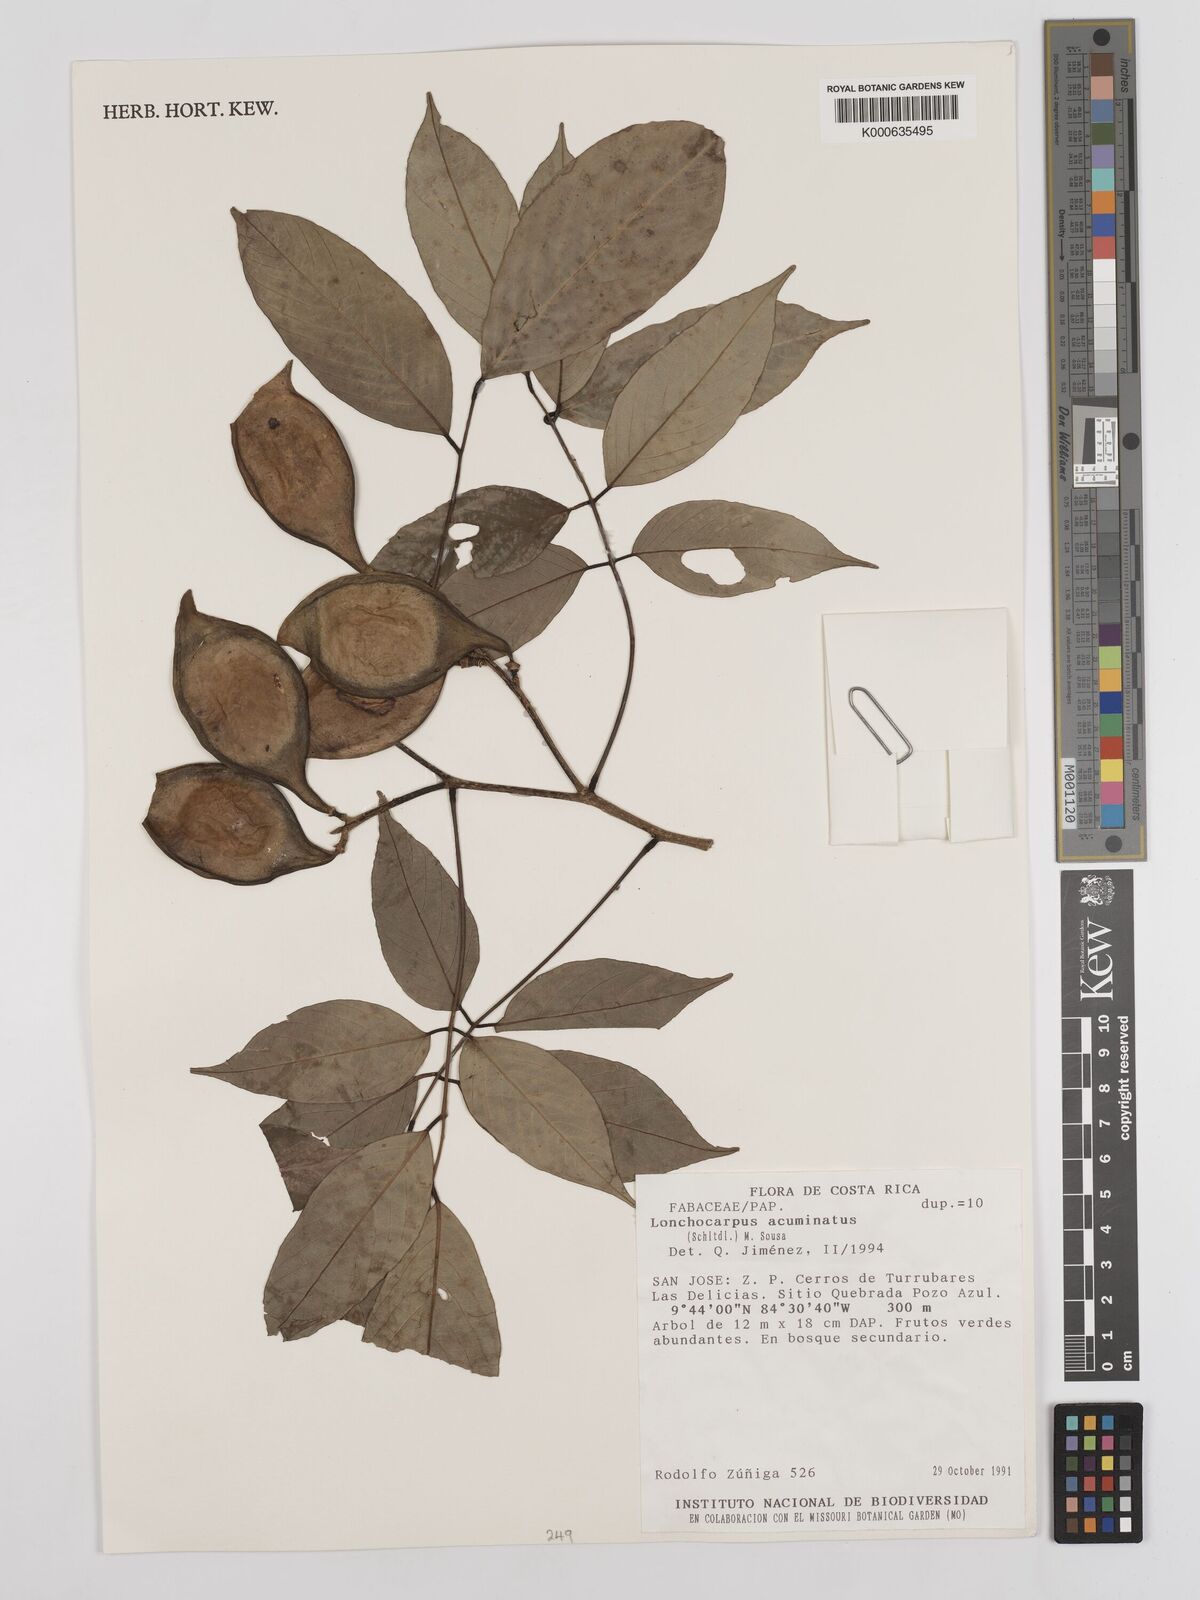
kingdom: Plantae
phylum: Tracheophyta
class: Magnoliopsida
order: Fabales
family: Fabaceae
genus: Lonchocarpus
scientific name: Lonchocarpus acuminatus
